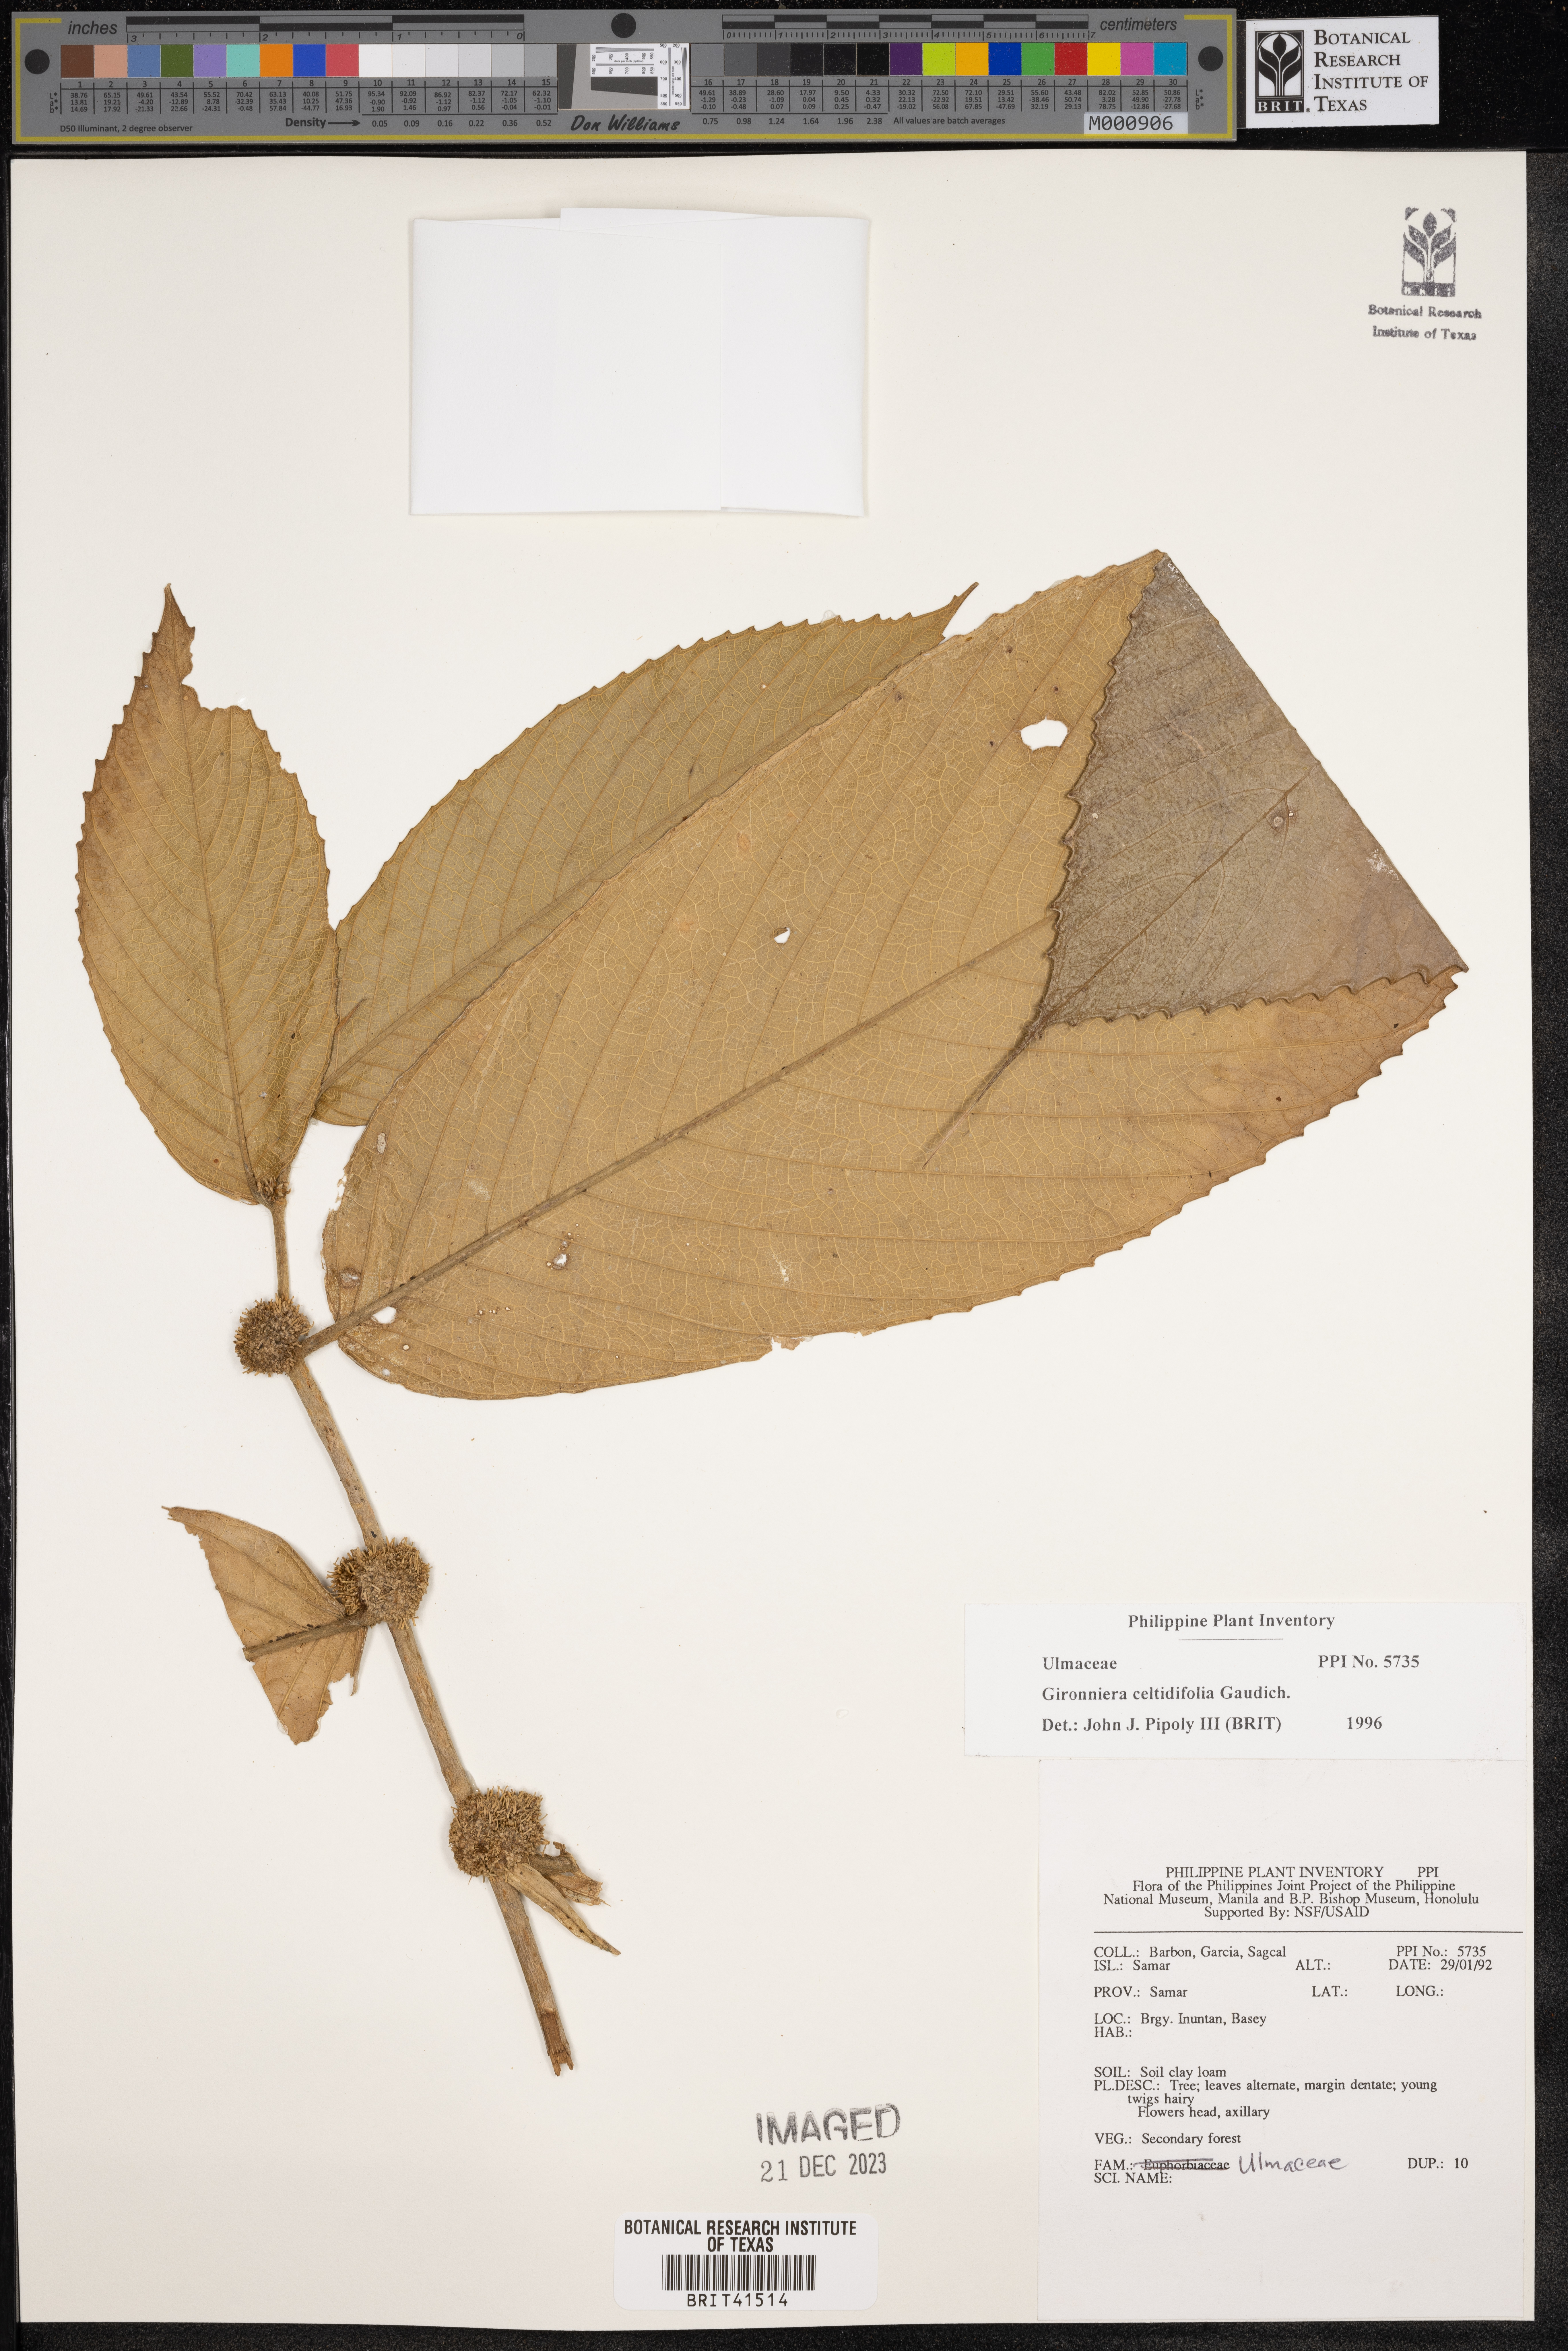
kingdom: Plantae
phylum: Tracheophyta
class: Magnoliopsida
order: Rosales
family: Cannabaceae
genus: Gironniera
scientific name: Gironniera celtidifolia
